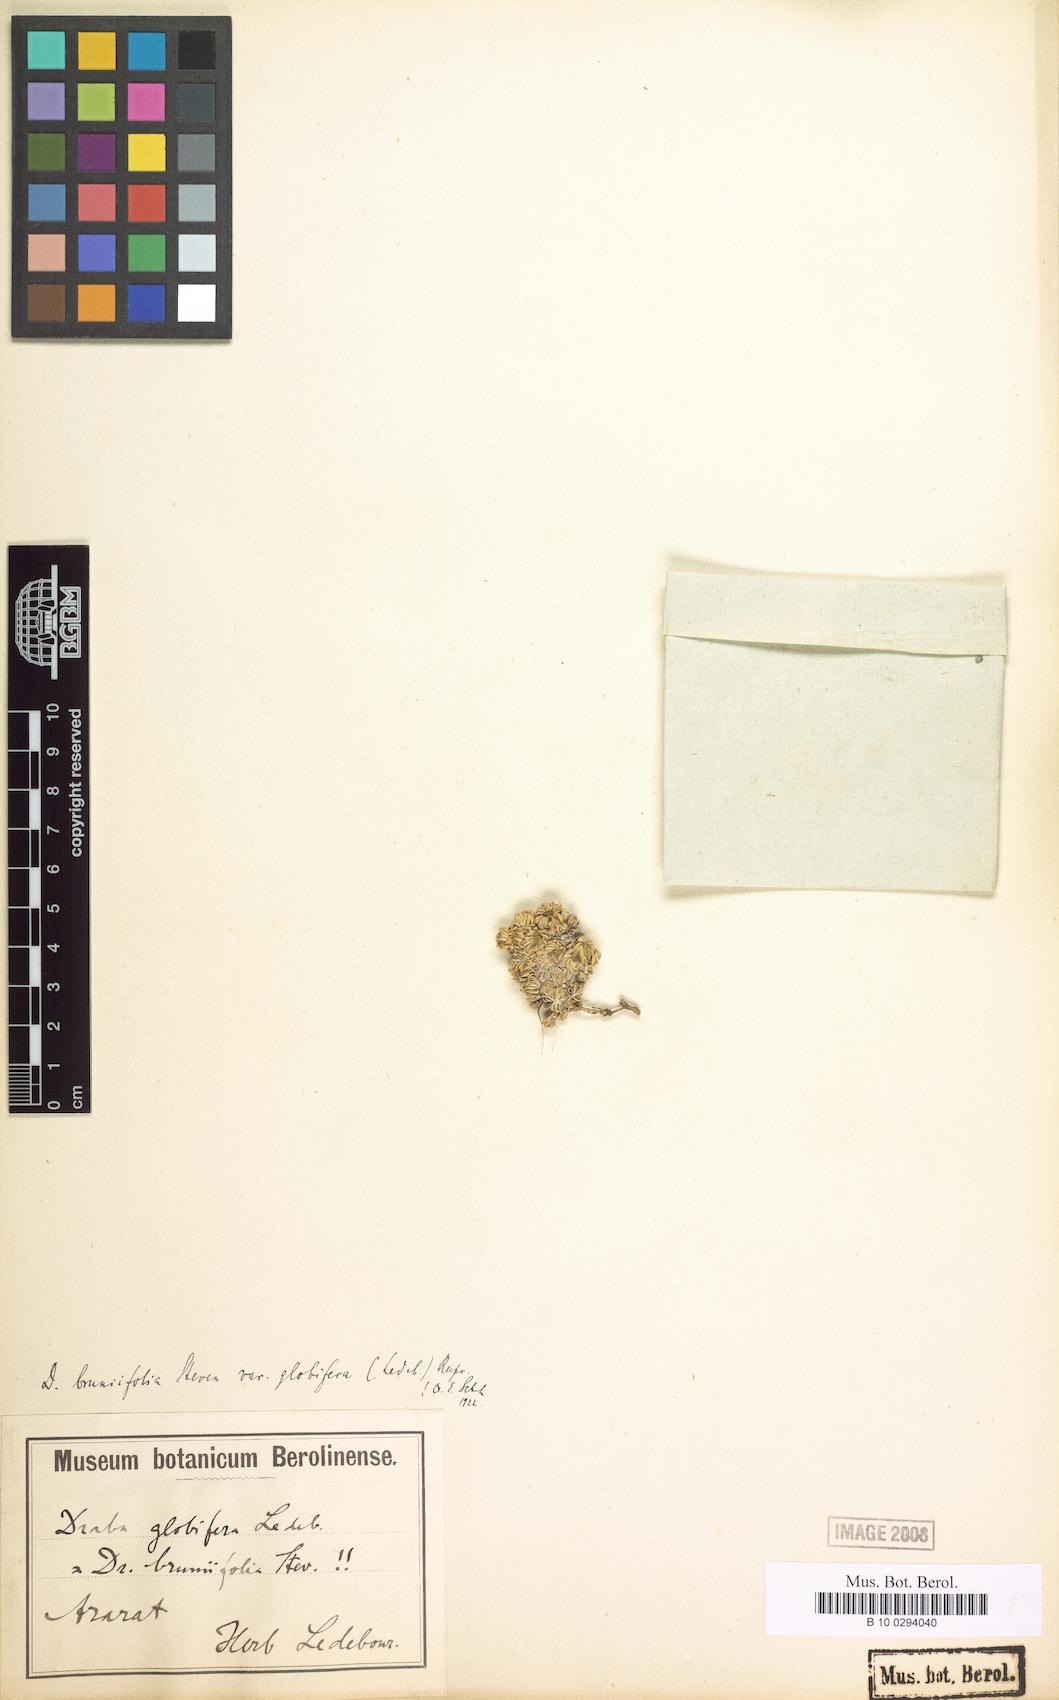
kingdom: Plantae
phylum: Tracheophyta
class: Magnoliopsida
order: Brassicales
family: Brassicaceae
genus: Draba
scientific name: Draba bruniifolia
